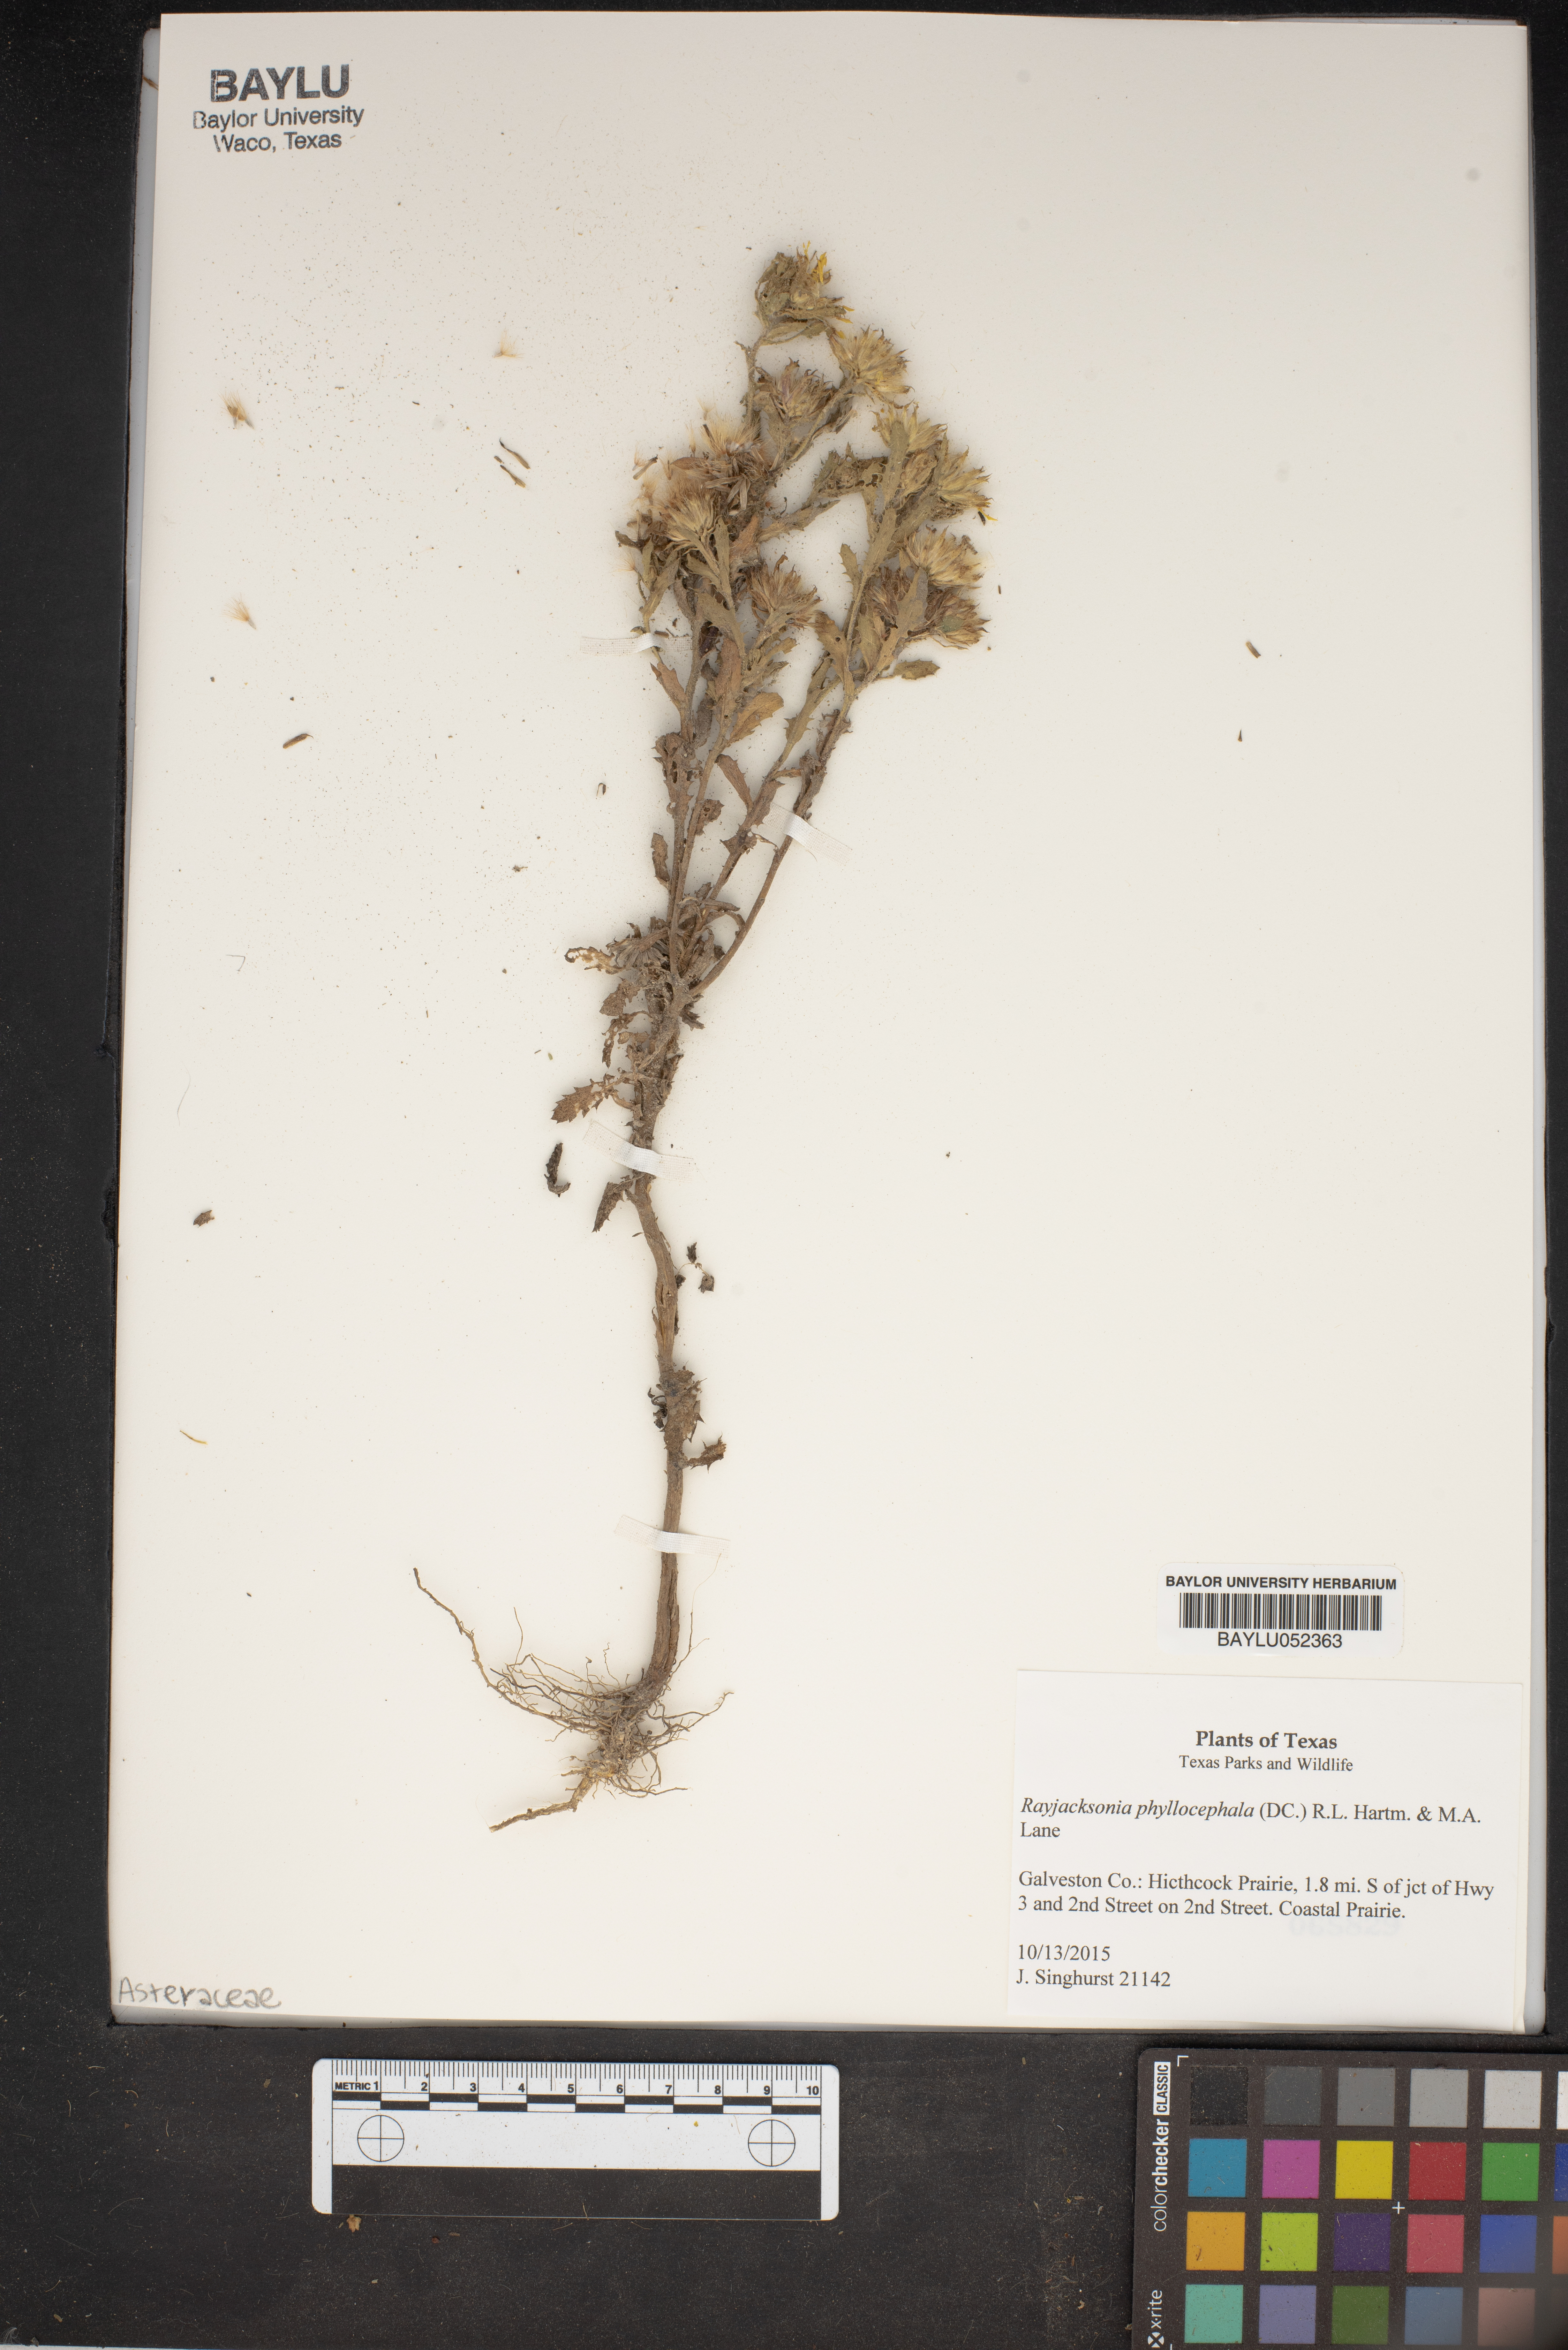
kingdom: Plantae
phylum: Tracheophyta
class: Magnoliopsida
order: Asterales
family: Asteraceae
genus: Rayjacksonia
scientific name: Rayjacksonia phyllocephala
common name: Gulf coast camphor daisy
